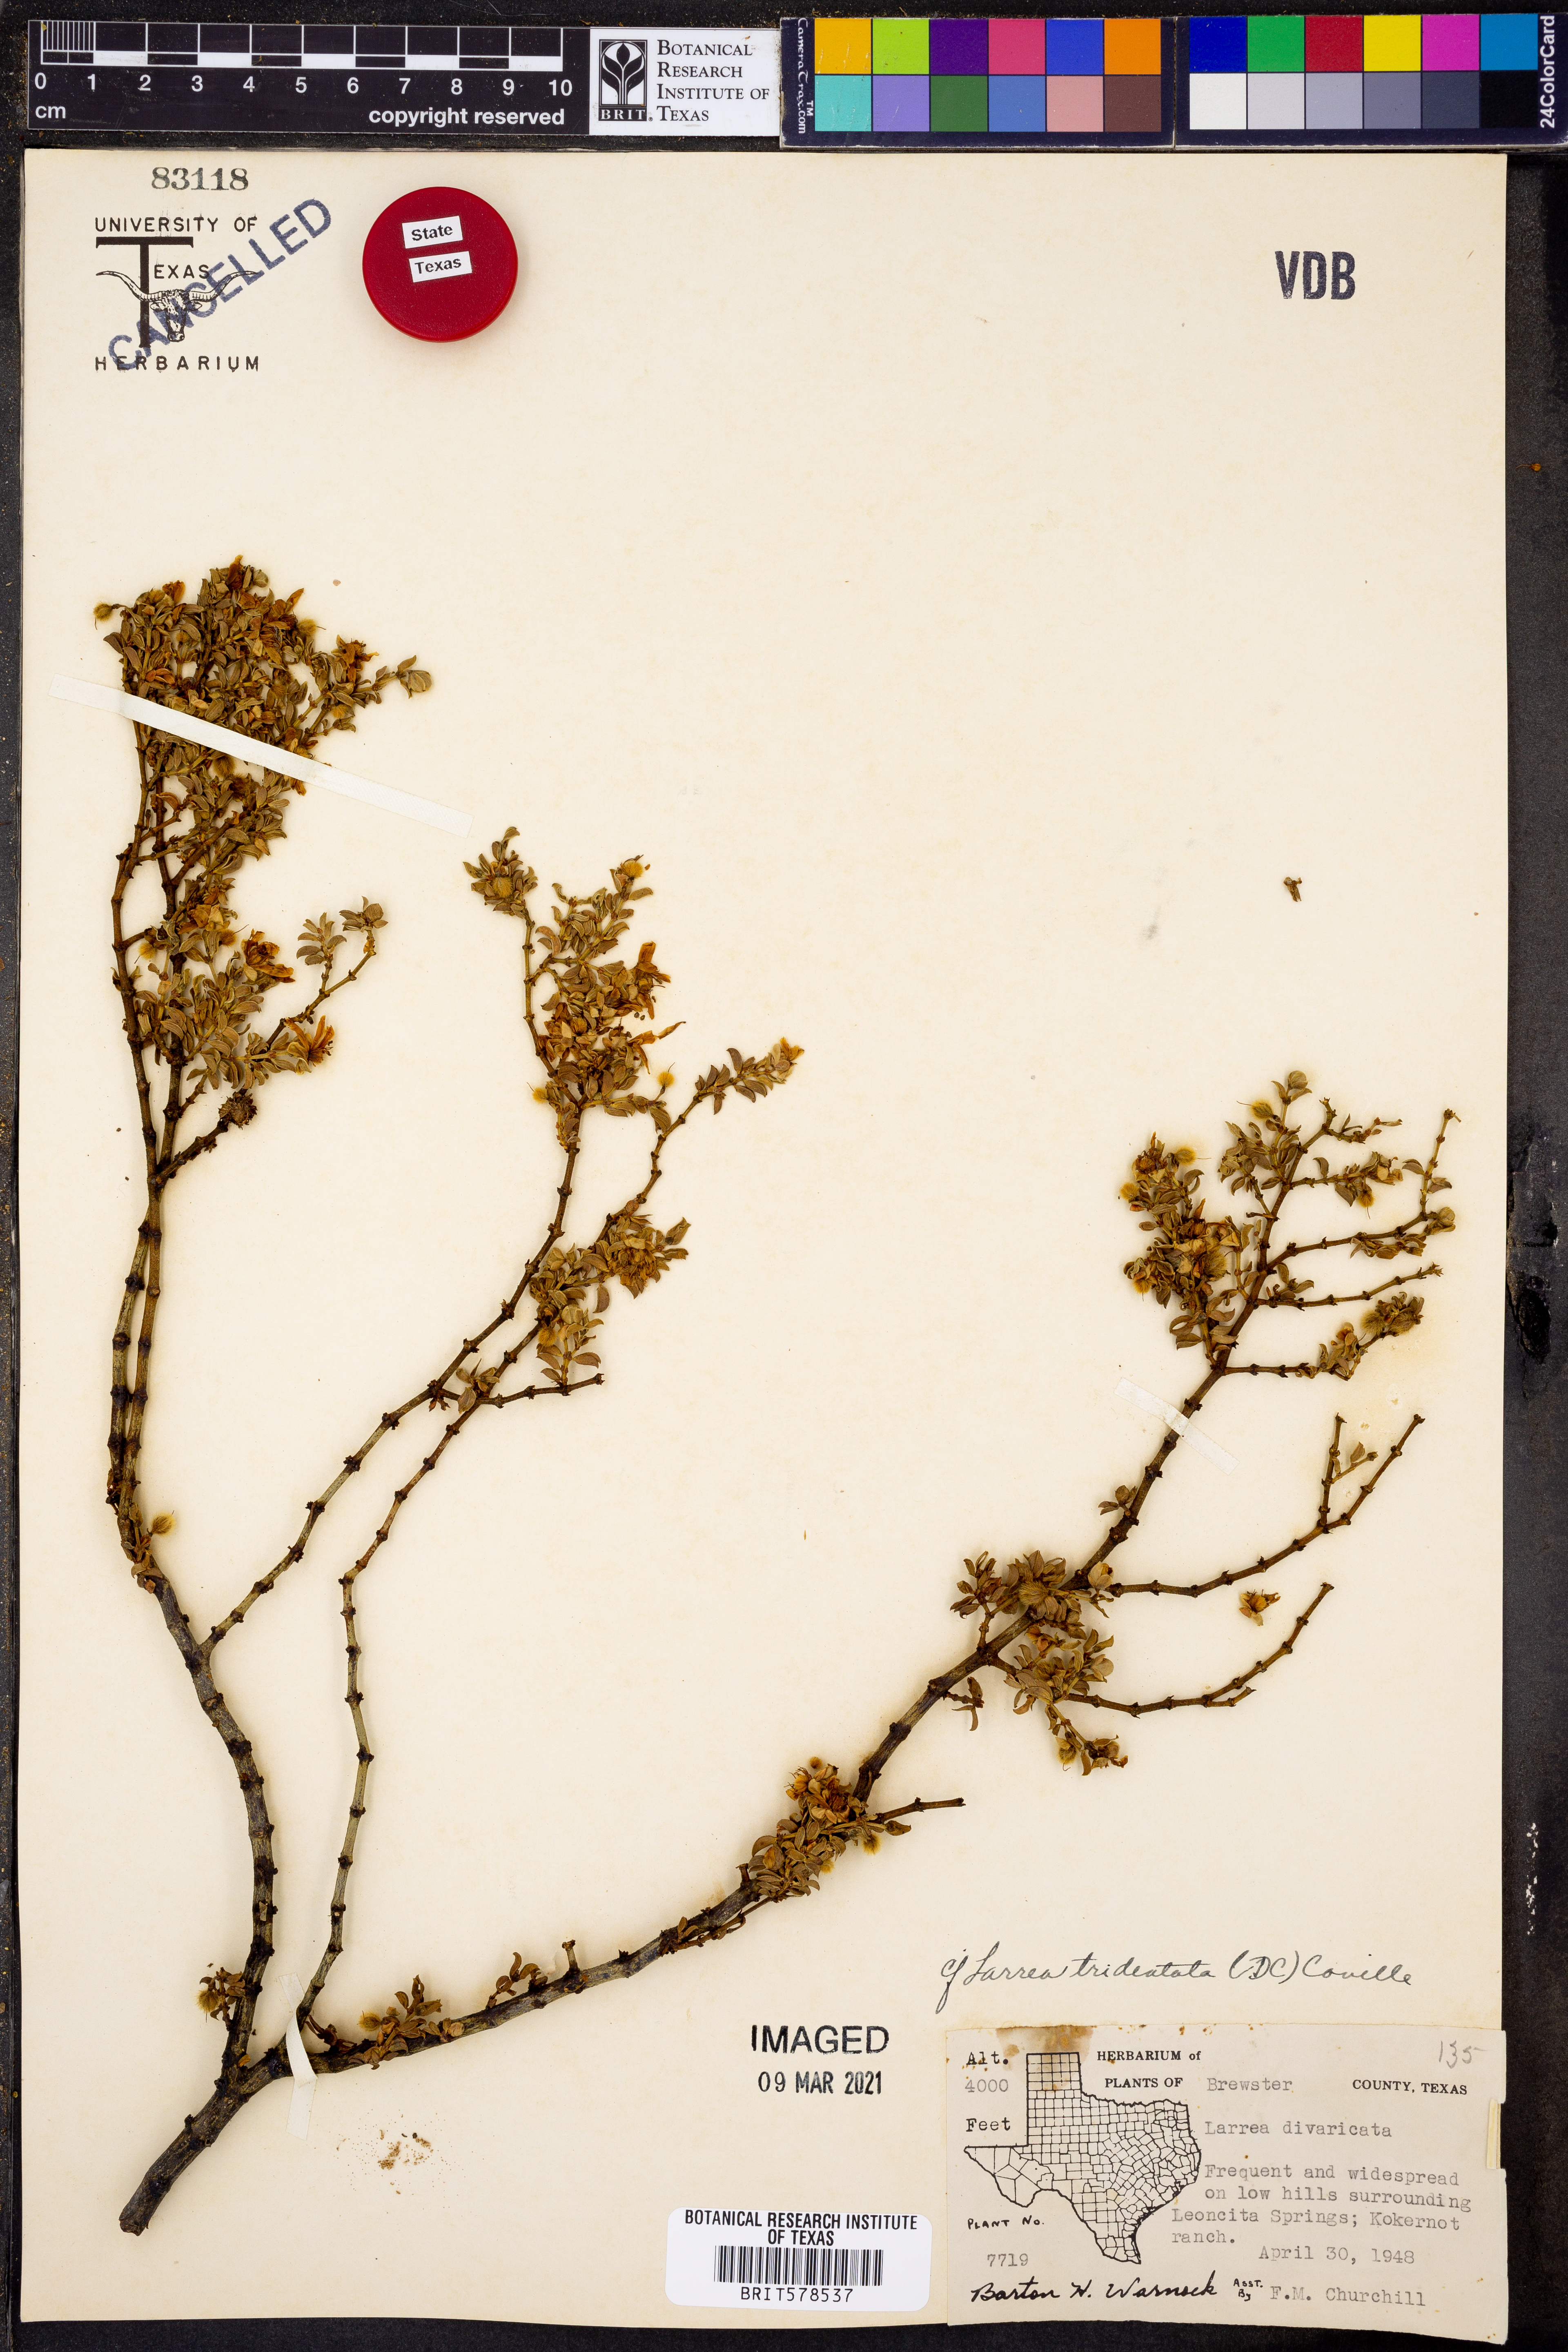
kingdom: Plantae
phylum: Tracheophyta
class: Magnoliopsida
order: Zygophyllales
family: Zygophyllaceae
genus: Larrea
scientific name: Larrea tridentata
